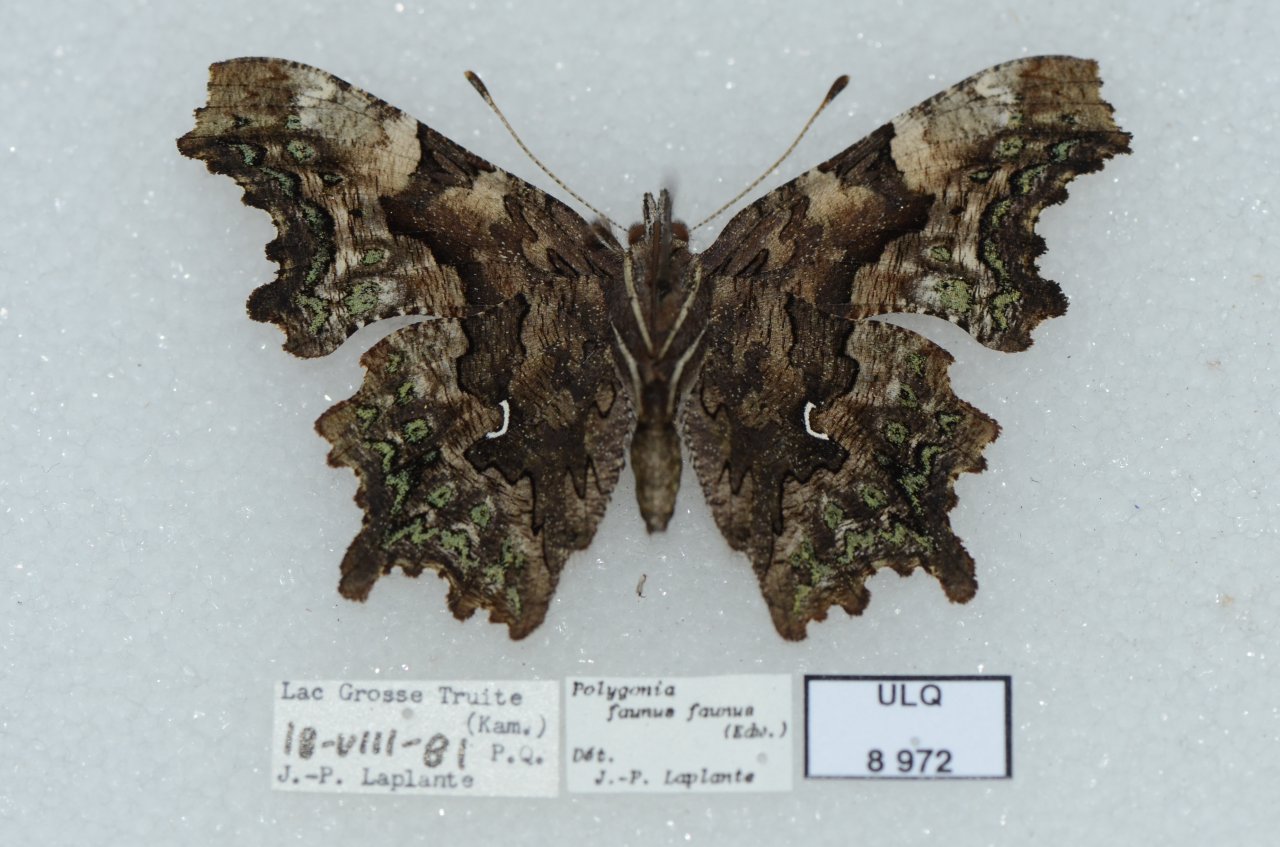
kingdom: Animalia
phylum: Arthropoda
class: Insecta
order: Lepidoptera
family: Nymphalidae
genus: Polygonia
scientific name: Polygonia faunus
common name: Green Comma
